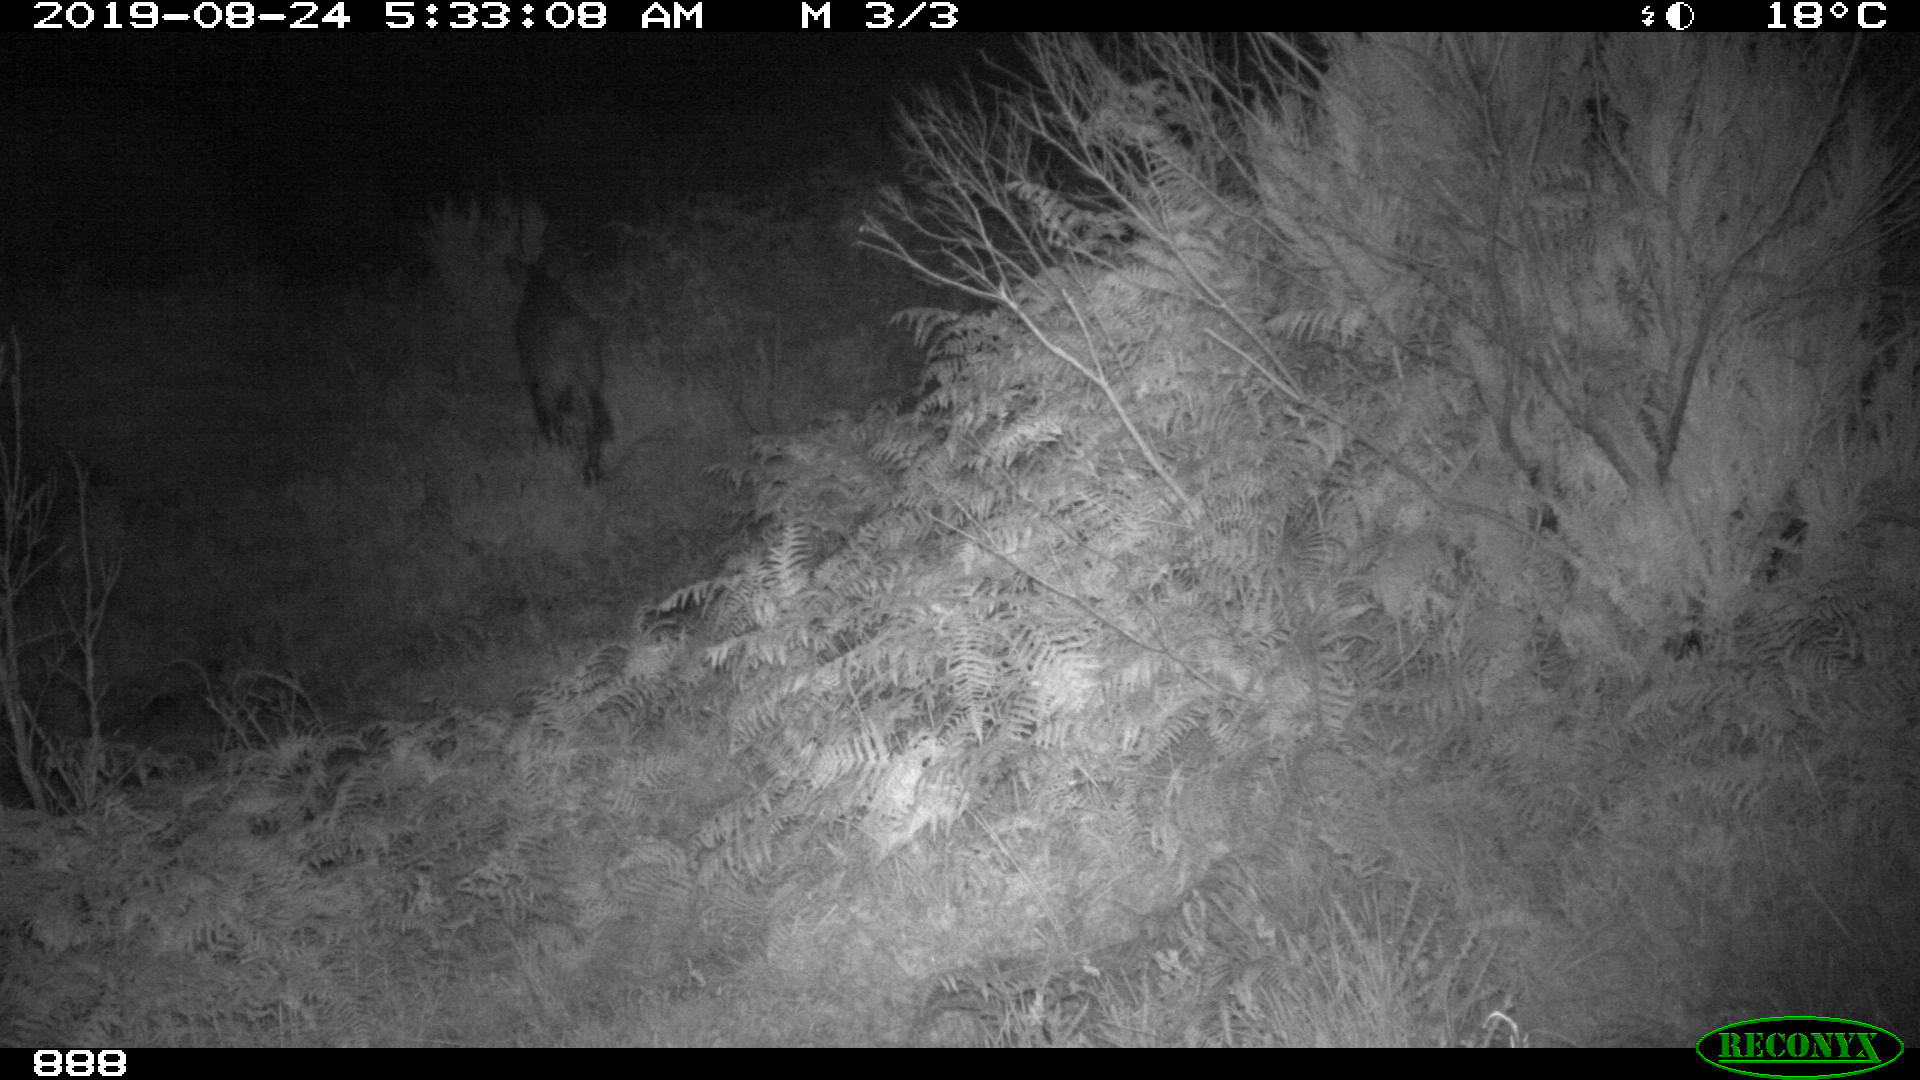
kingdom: Animalia
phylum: Chordata
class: Mammalia
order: Artiodactyla
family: Suidae
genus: Sus
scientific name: Sus scrofa
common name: Wild boar
